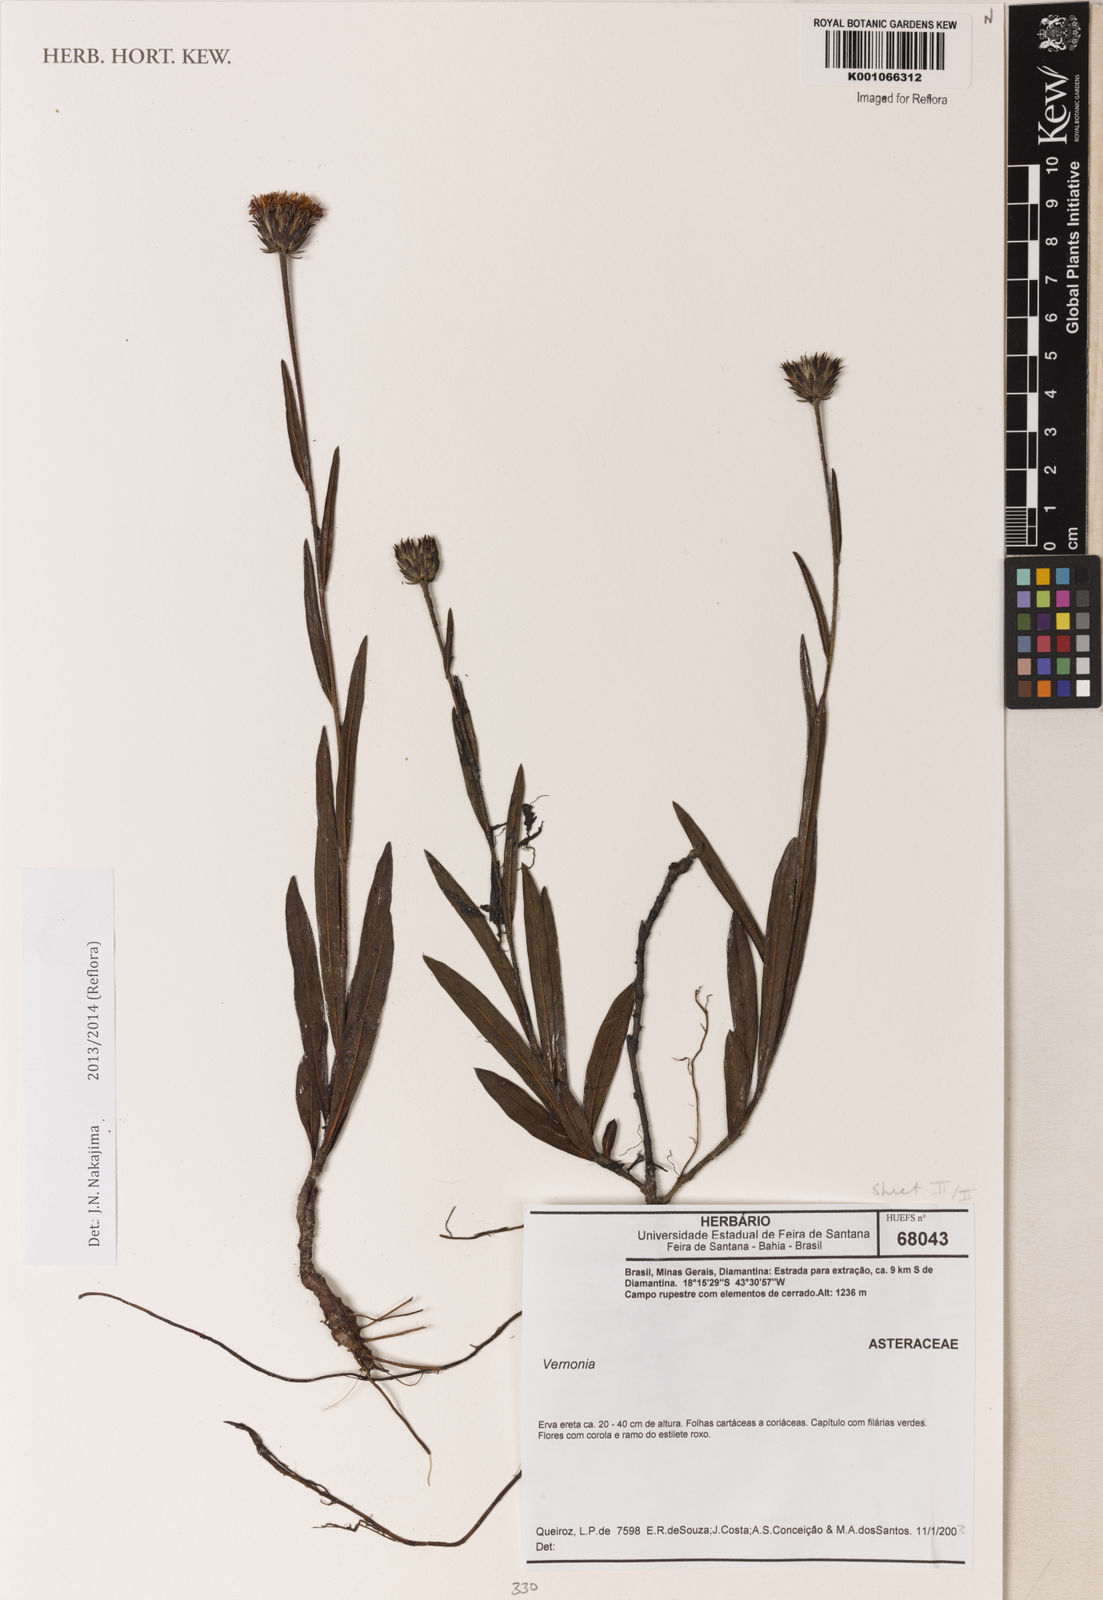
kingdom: Plantae
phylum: Tracheophyta
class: Magnoliopsida
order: Asterales
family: Asteraceae
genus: Vernonia
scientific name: Vernonia
